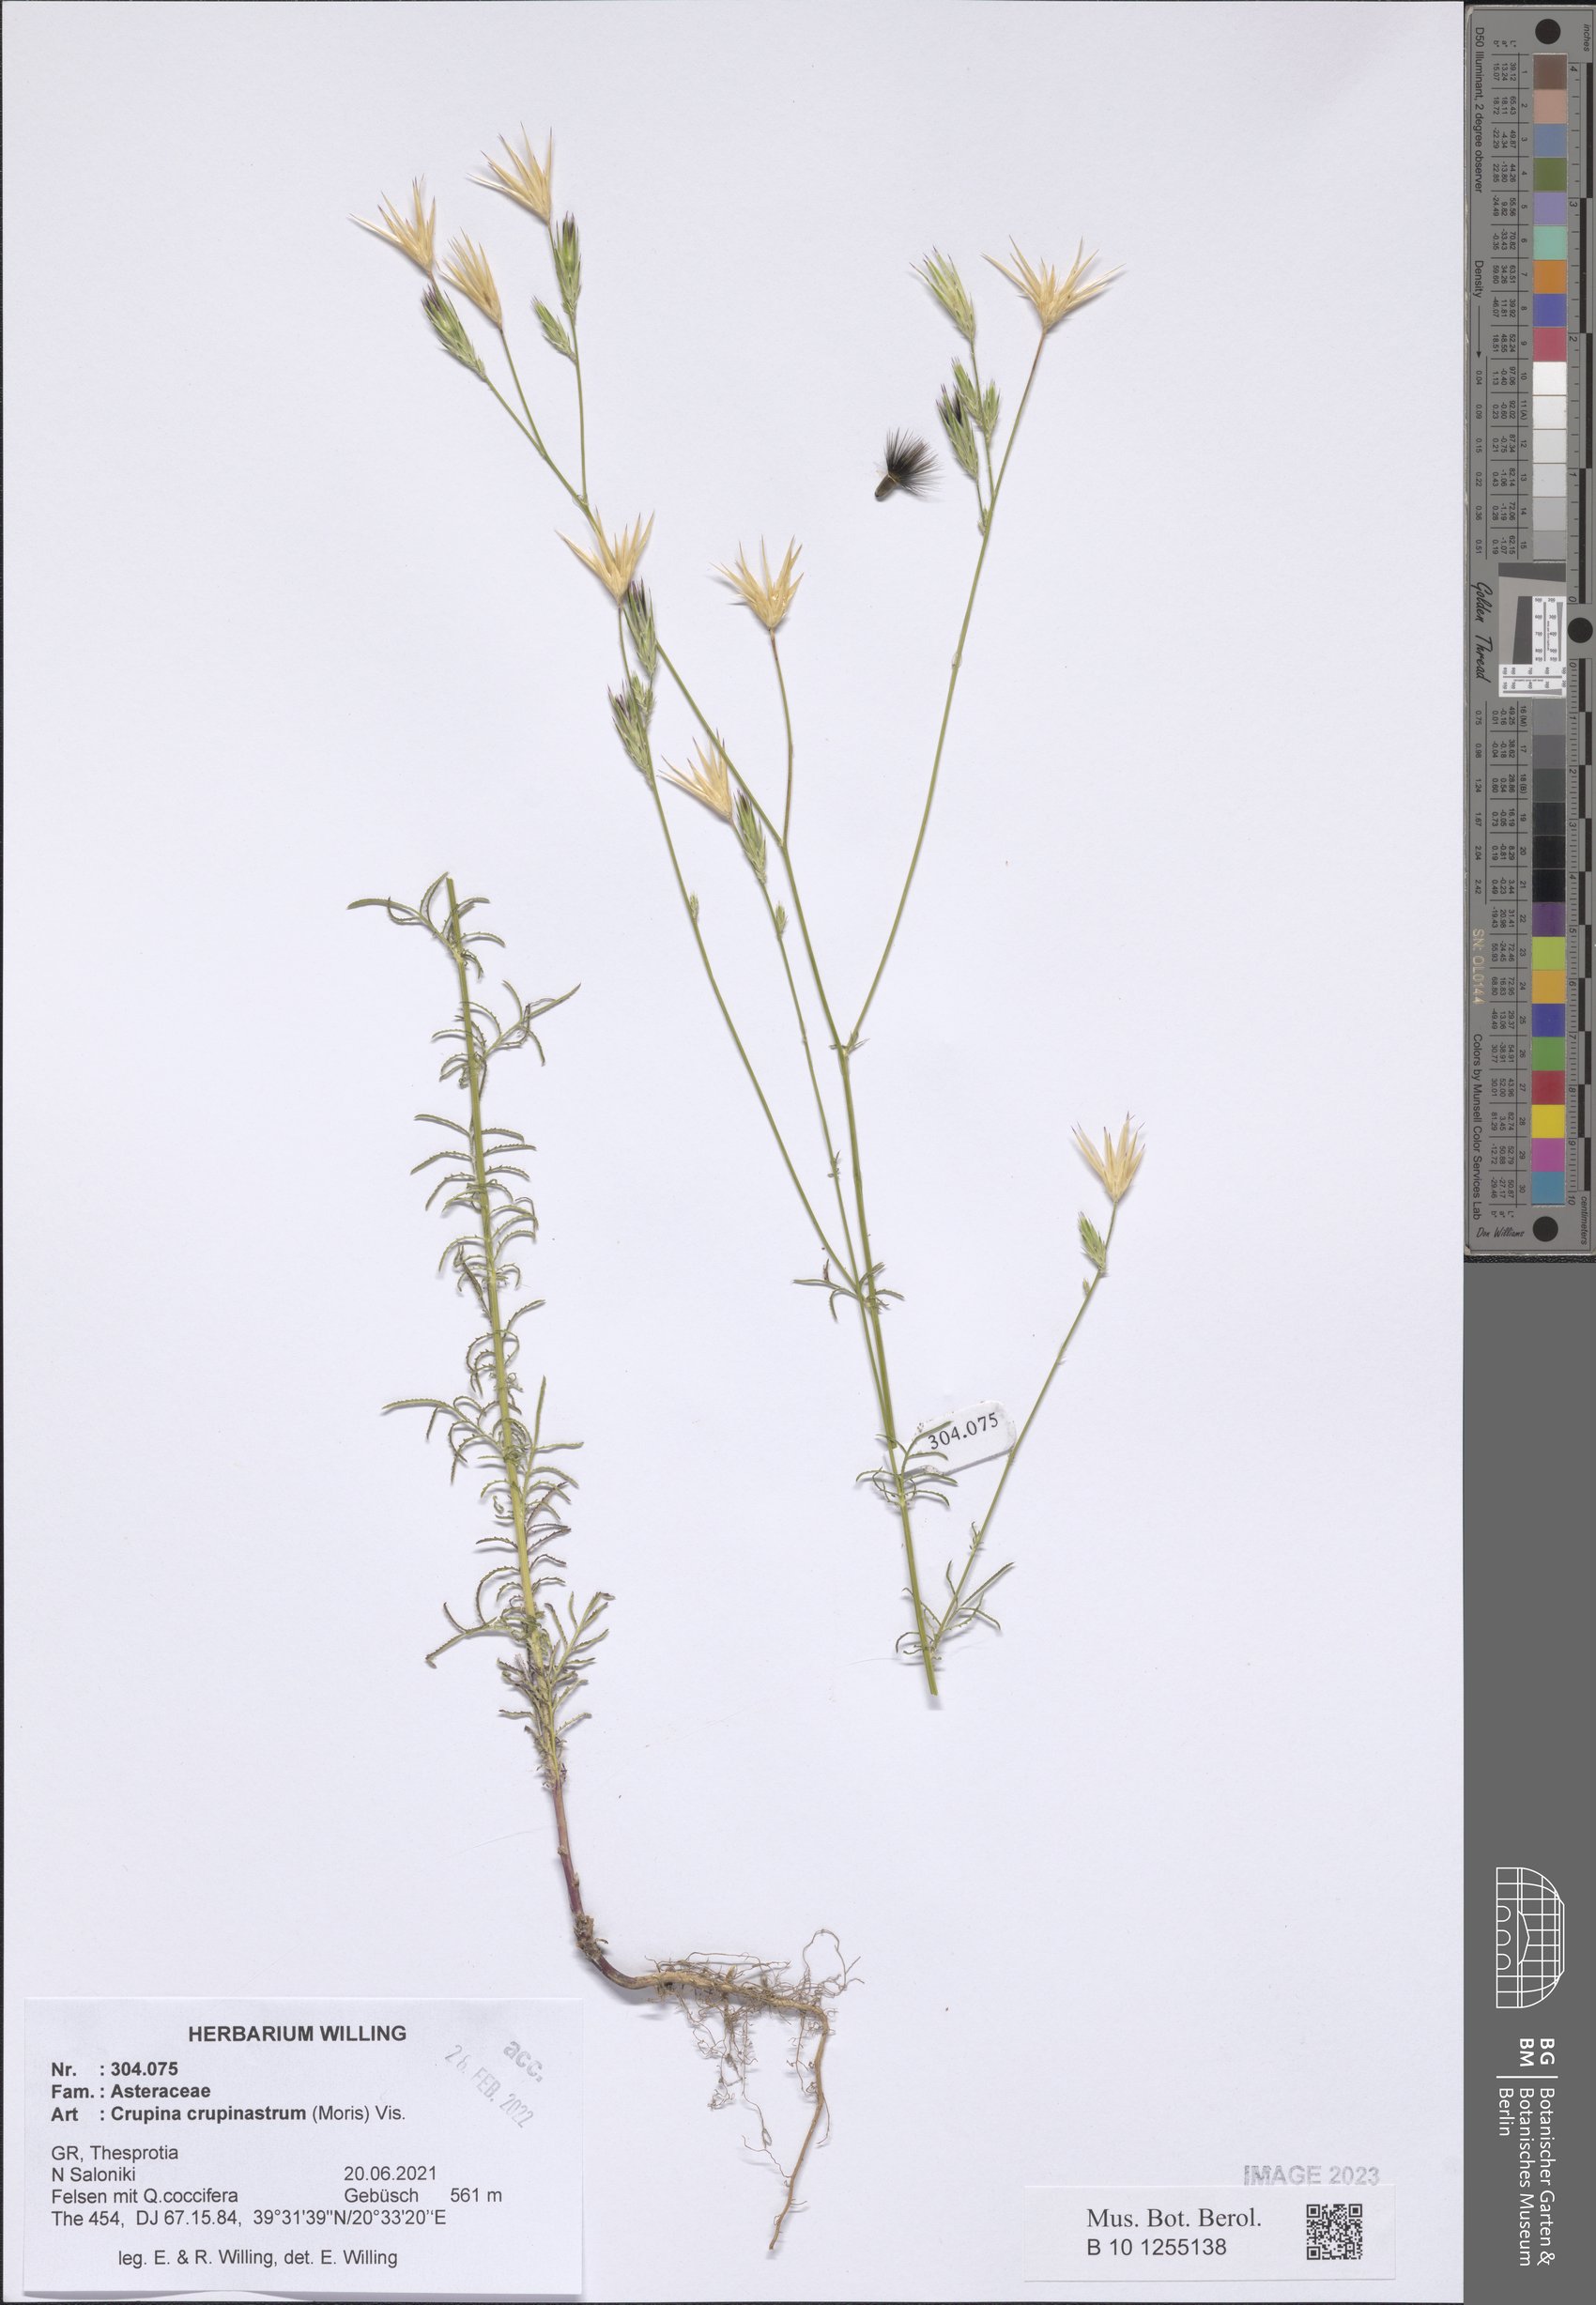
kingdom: Plantae
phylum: Tracheophyta
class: Magnoliopsida
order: Asterales
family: Asteraceae
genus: Crupina
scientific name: Crupina crupinastrum
